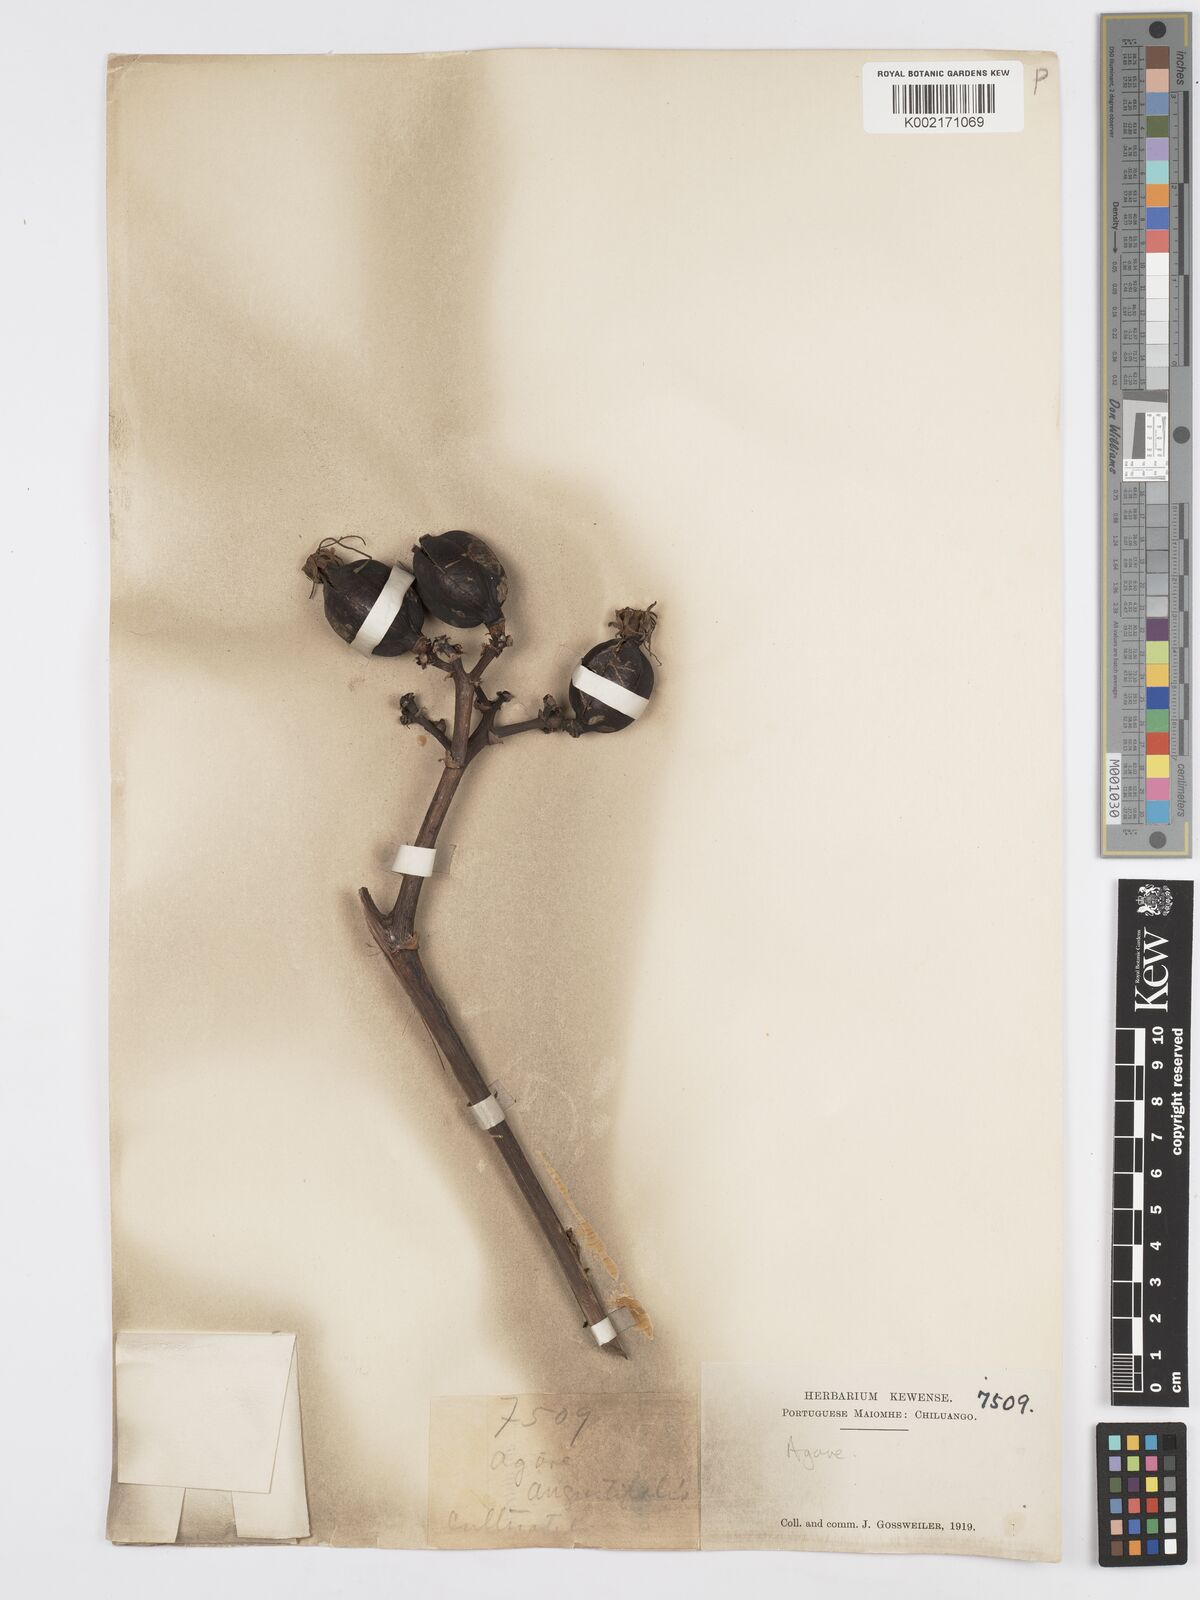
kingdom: Plantae
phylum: Tracheophyta
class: Liliopsida
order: Asparagales
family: Asparagaceae
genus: Agave
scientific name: Agave
